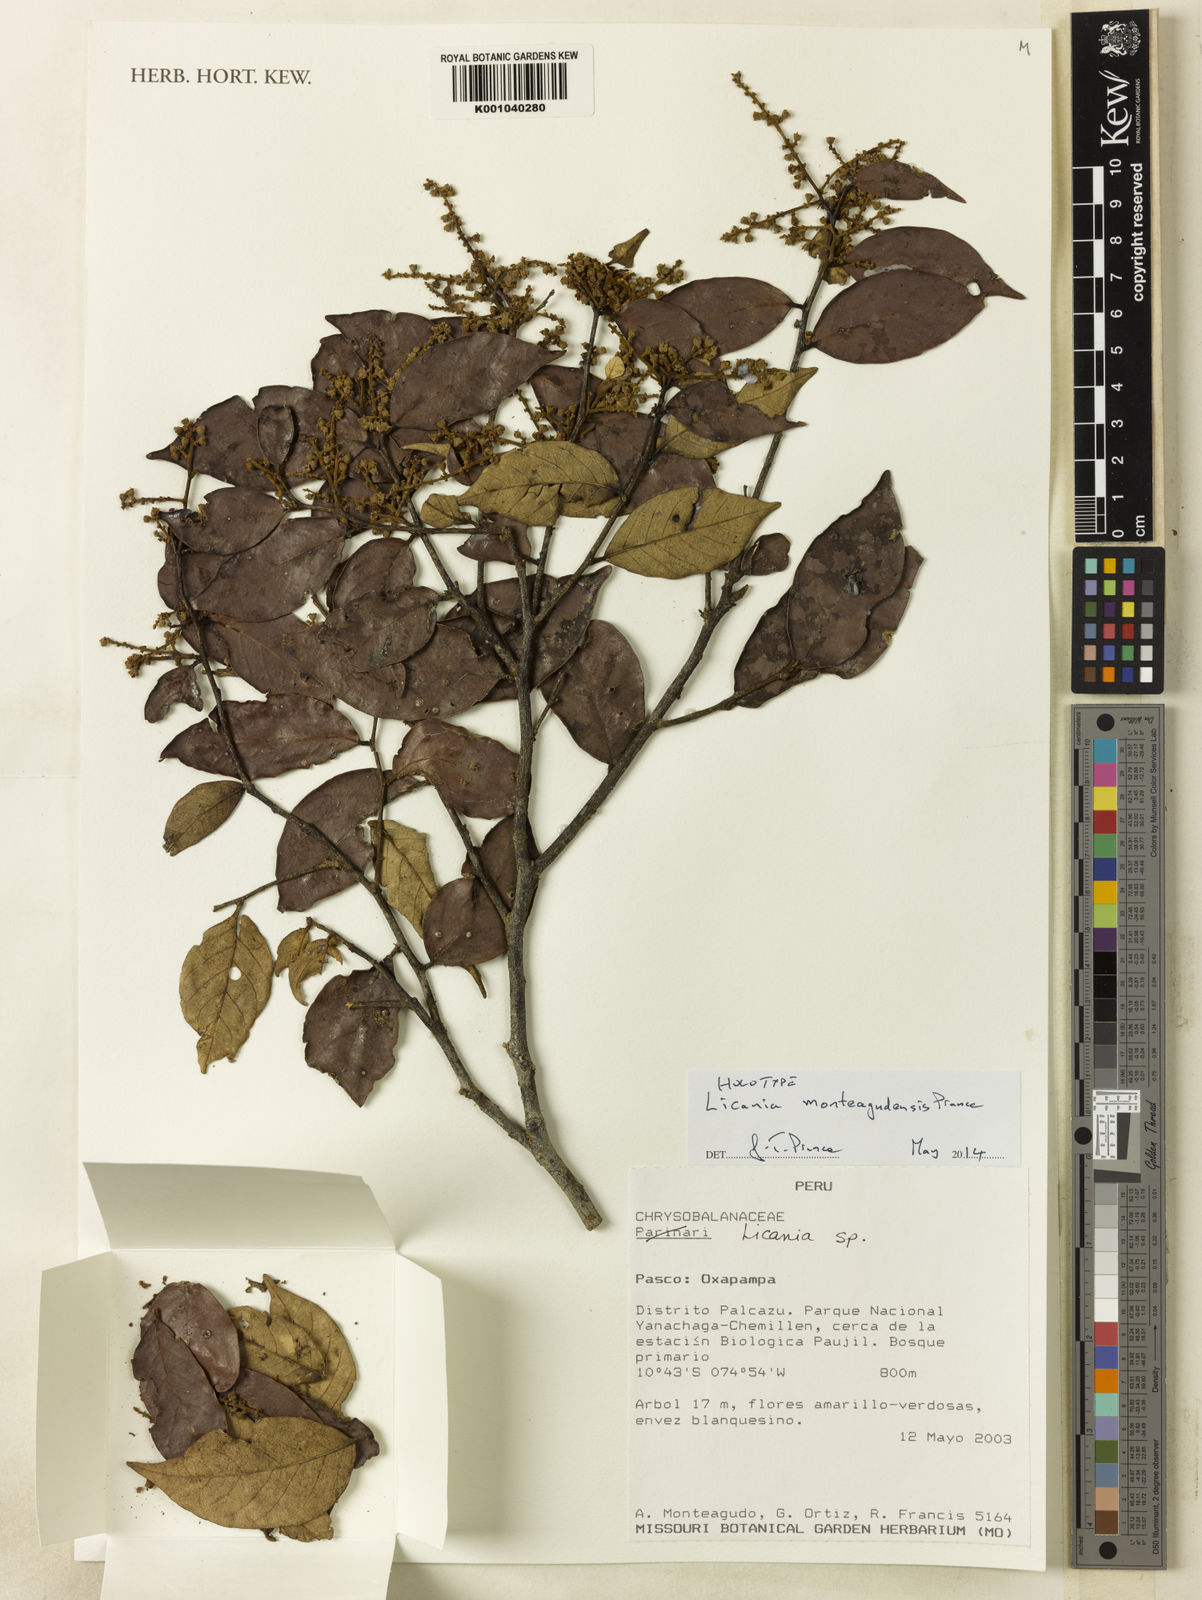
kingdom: Plantae
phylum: Tracheophyta
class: Magnoliopsida
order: Malpighiales
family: Chrysobalanaceae
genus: Licania
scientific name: Licania monteagudensis
